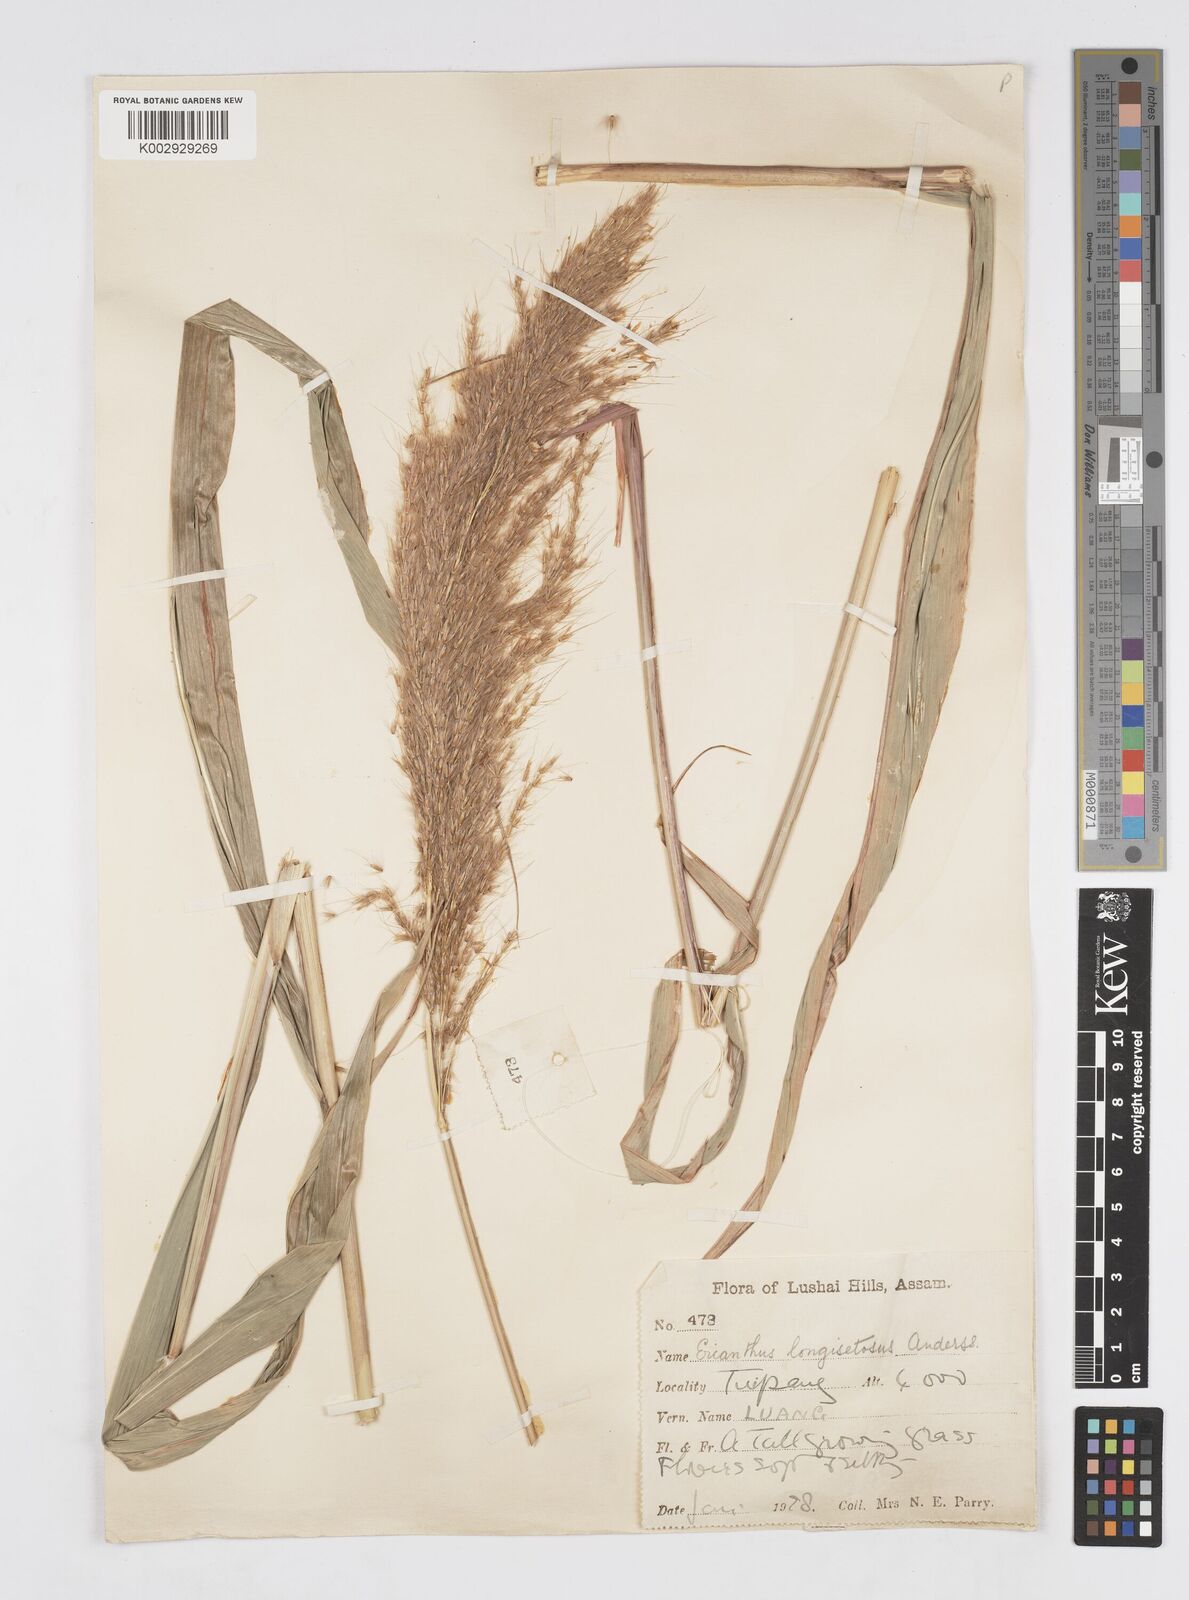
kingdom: Plantae
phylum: Tracheophyta
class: Liliopsida
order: Poales
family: Poaceae
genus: Saccharum
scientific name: Saccharum longesetosum
